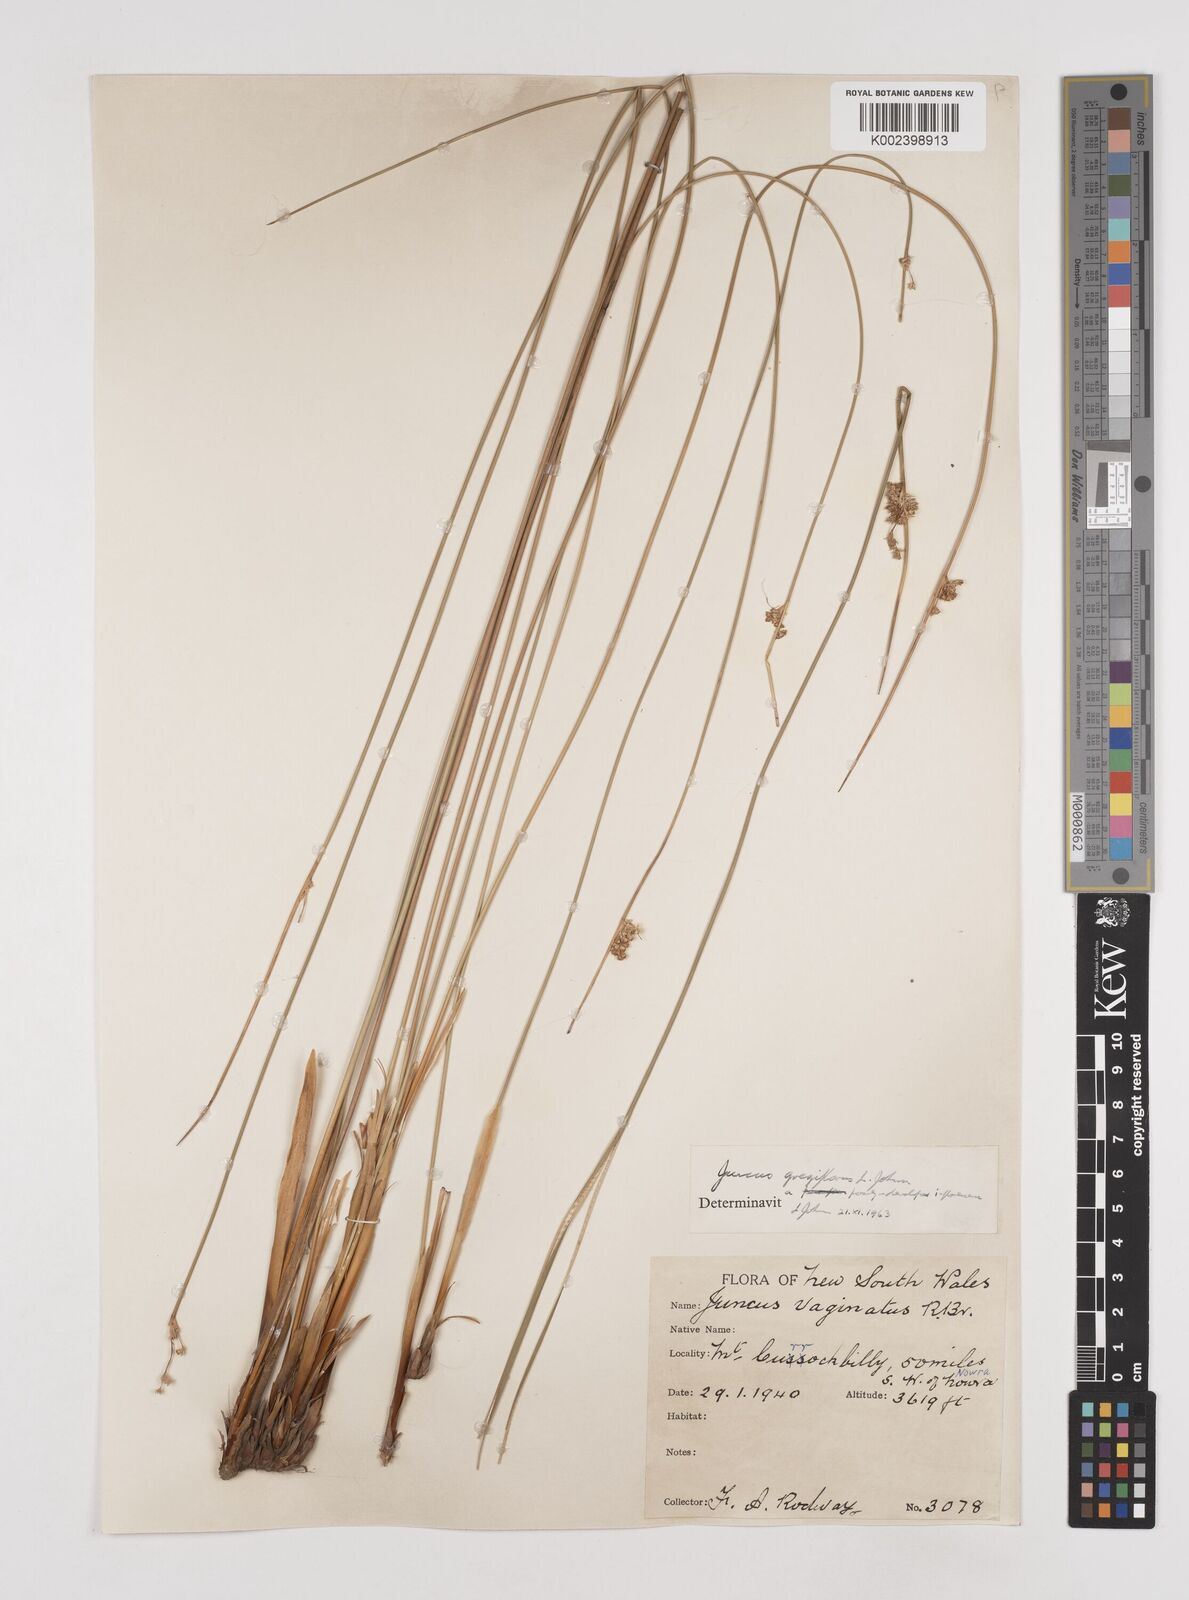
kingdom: Plantae
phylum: Tracheophyta
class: Liliopsida
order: Poales
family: Juncaceae
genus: Juncus
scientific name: Juncus gregiflorus
